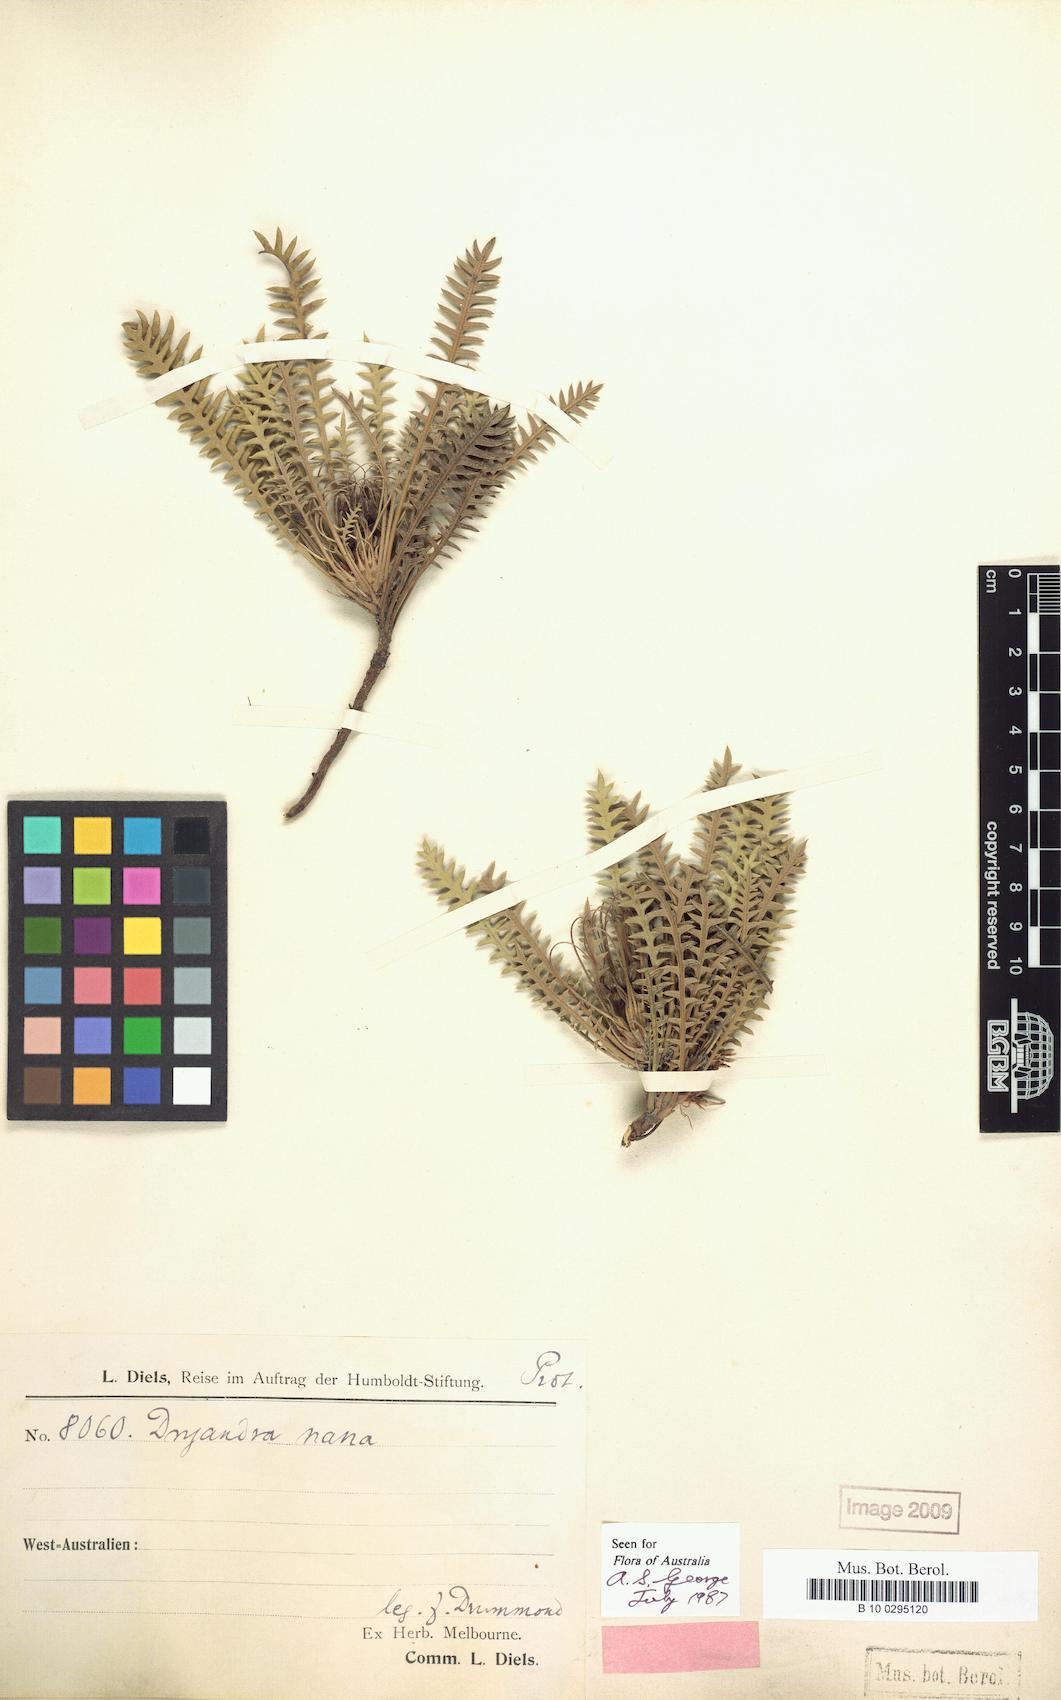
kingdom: Plantae
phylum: Tracheophyta
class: Magnoliopsida
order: Proteales
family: Proteaceae
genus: Banksia
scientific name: Banksia nana
